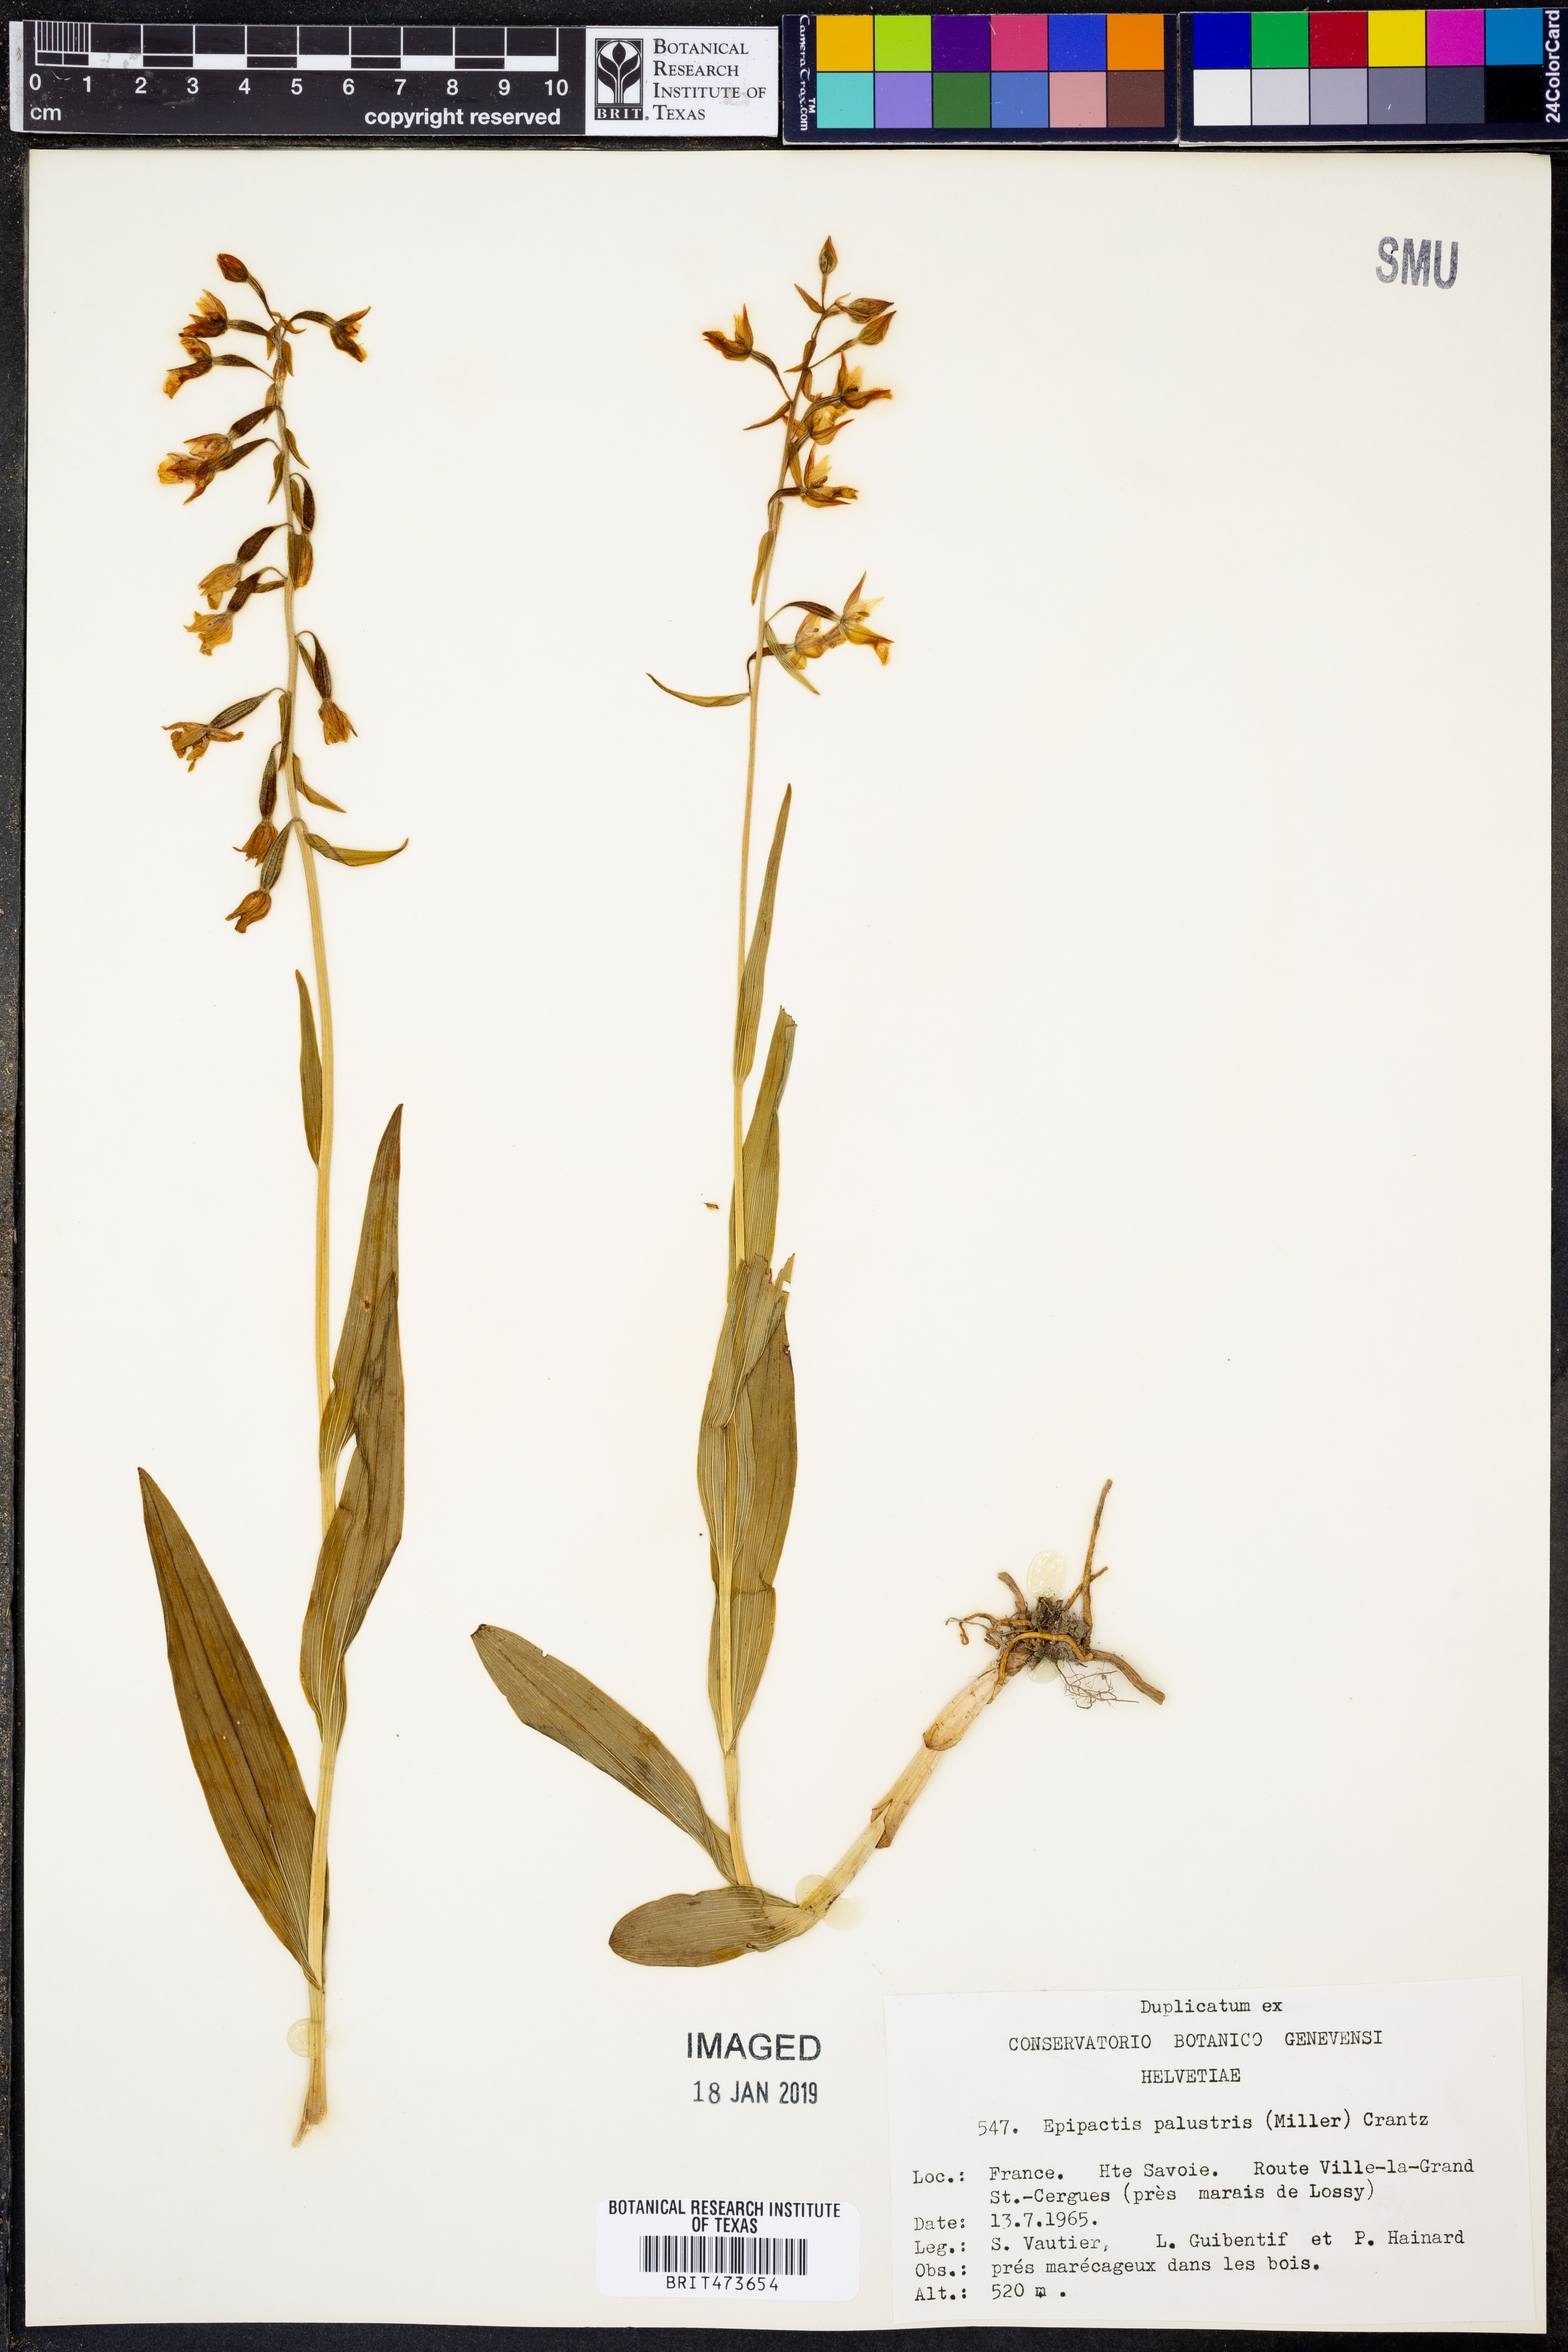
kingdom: Plantae
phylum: Tracheophyta
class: Liliopsida
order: Asparagales
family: Orchidaceae
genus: Epipactis
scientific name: Epipactis palustris
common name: Marsh helleborine
